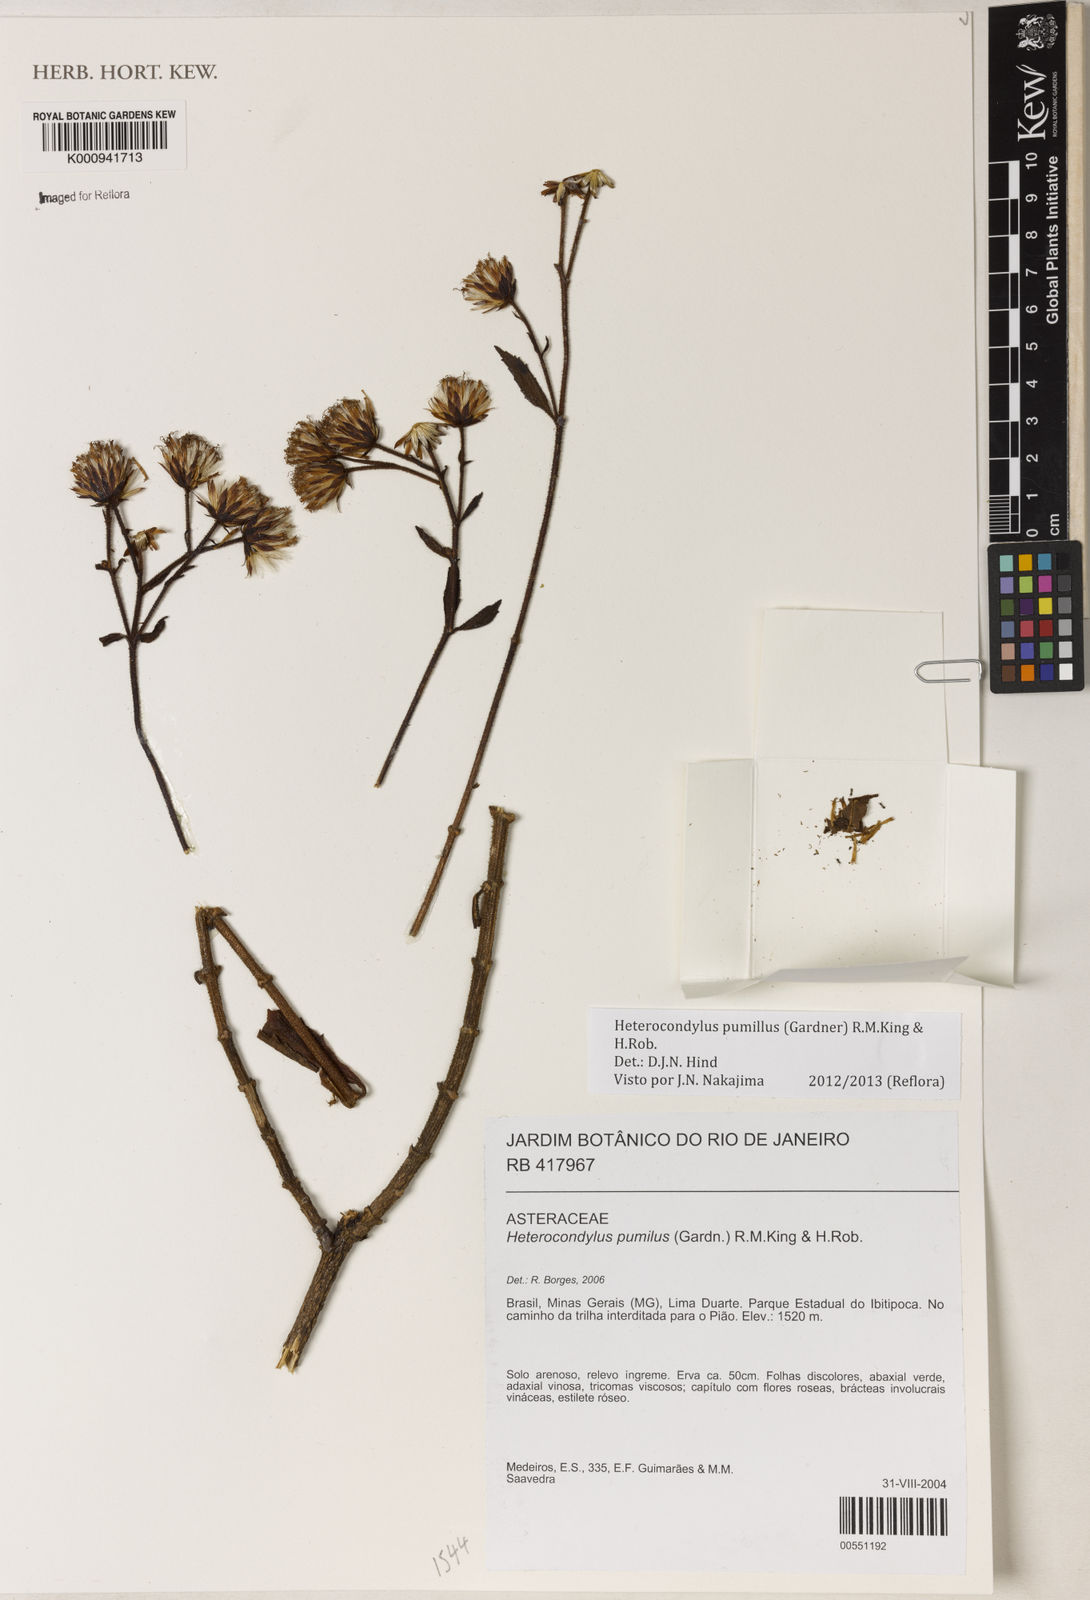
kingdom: Plantae
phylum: Tracheophyta
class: Magnoliopsida
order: Asterales
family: Asteraceae
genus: Heterocondylus
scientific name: Heterocondylus pumilus
